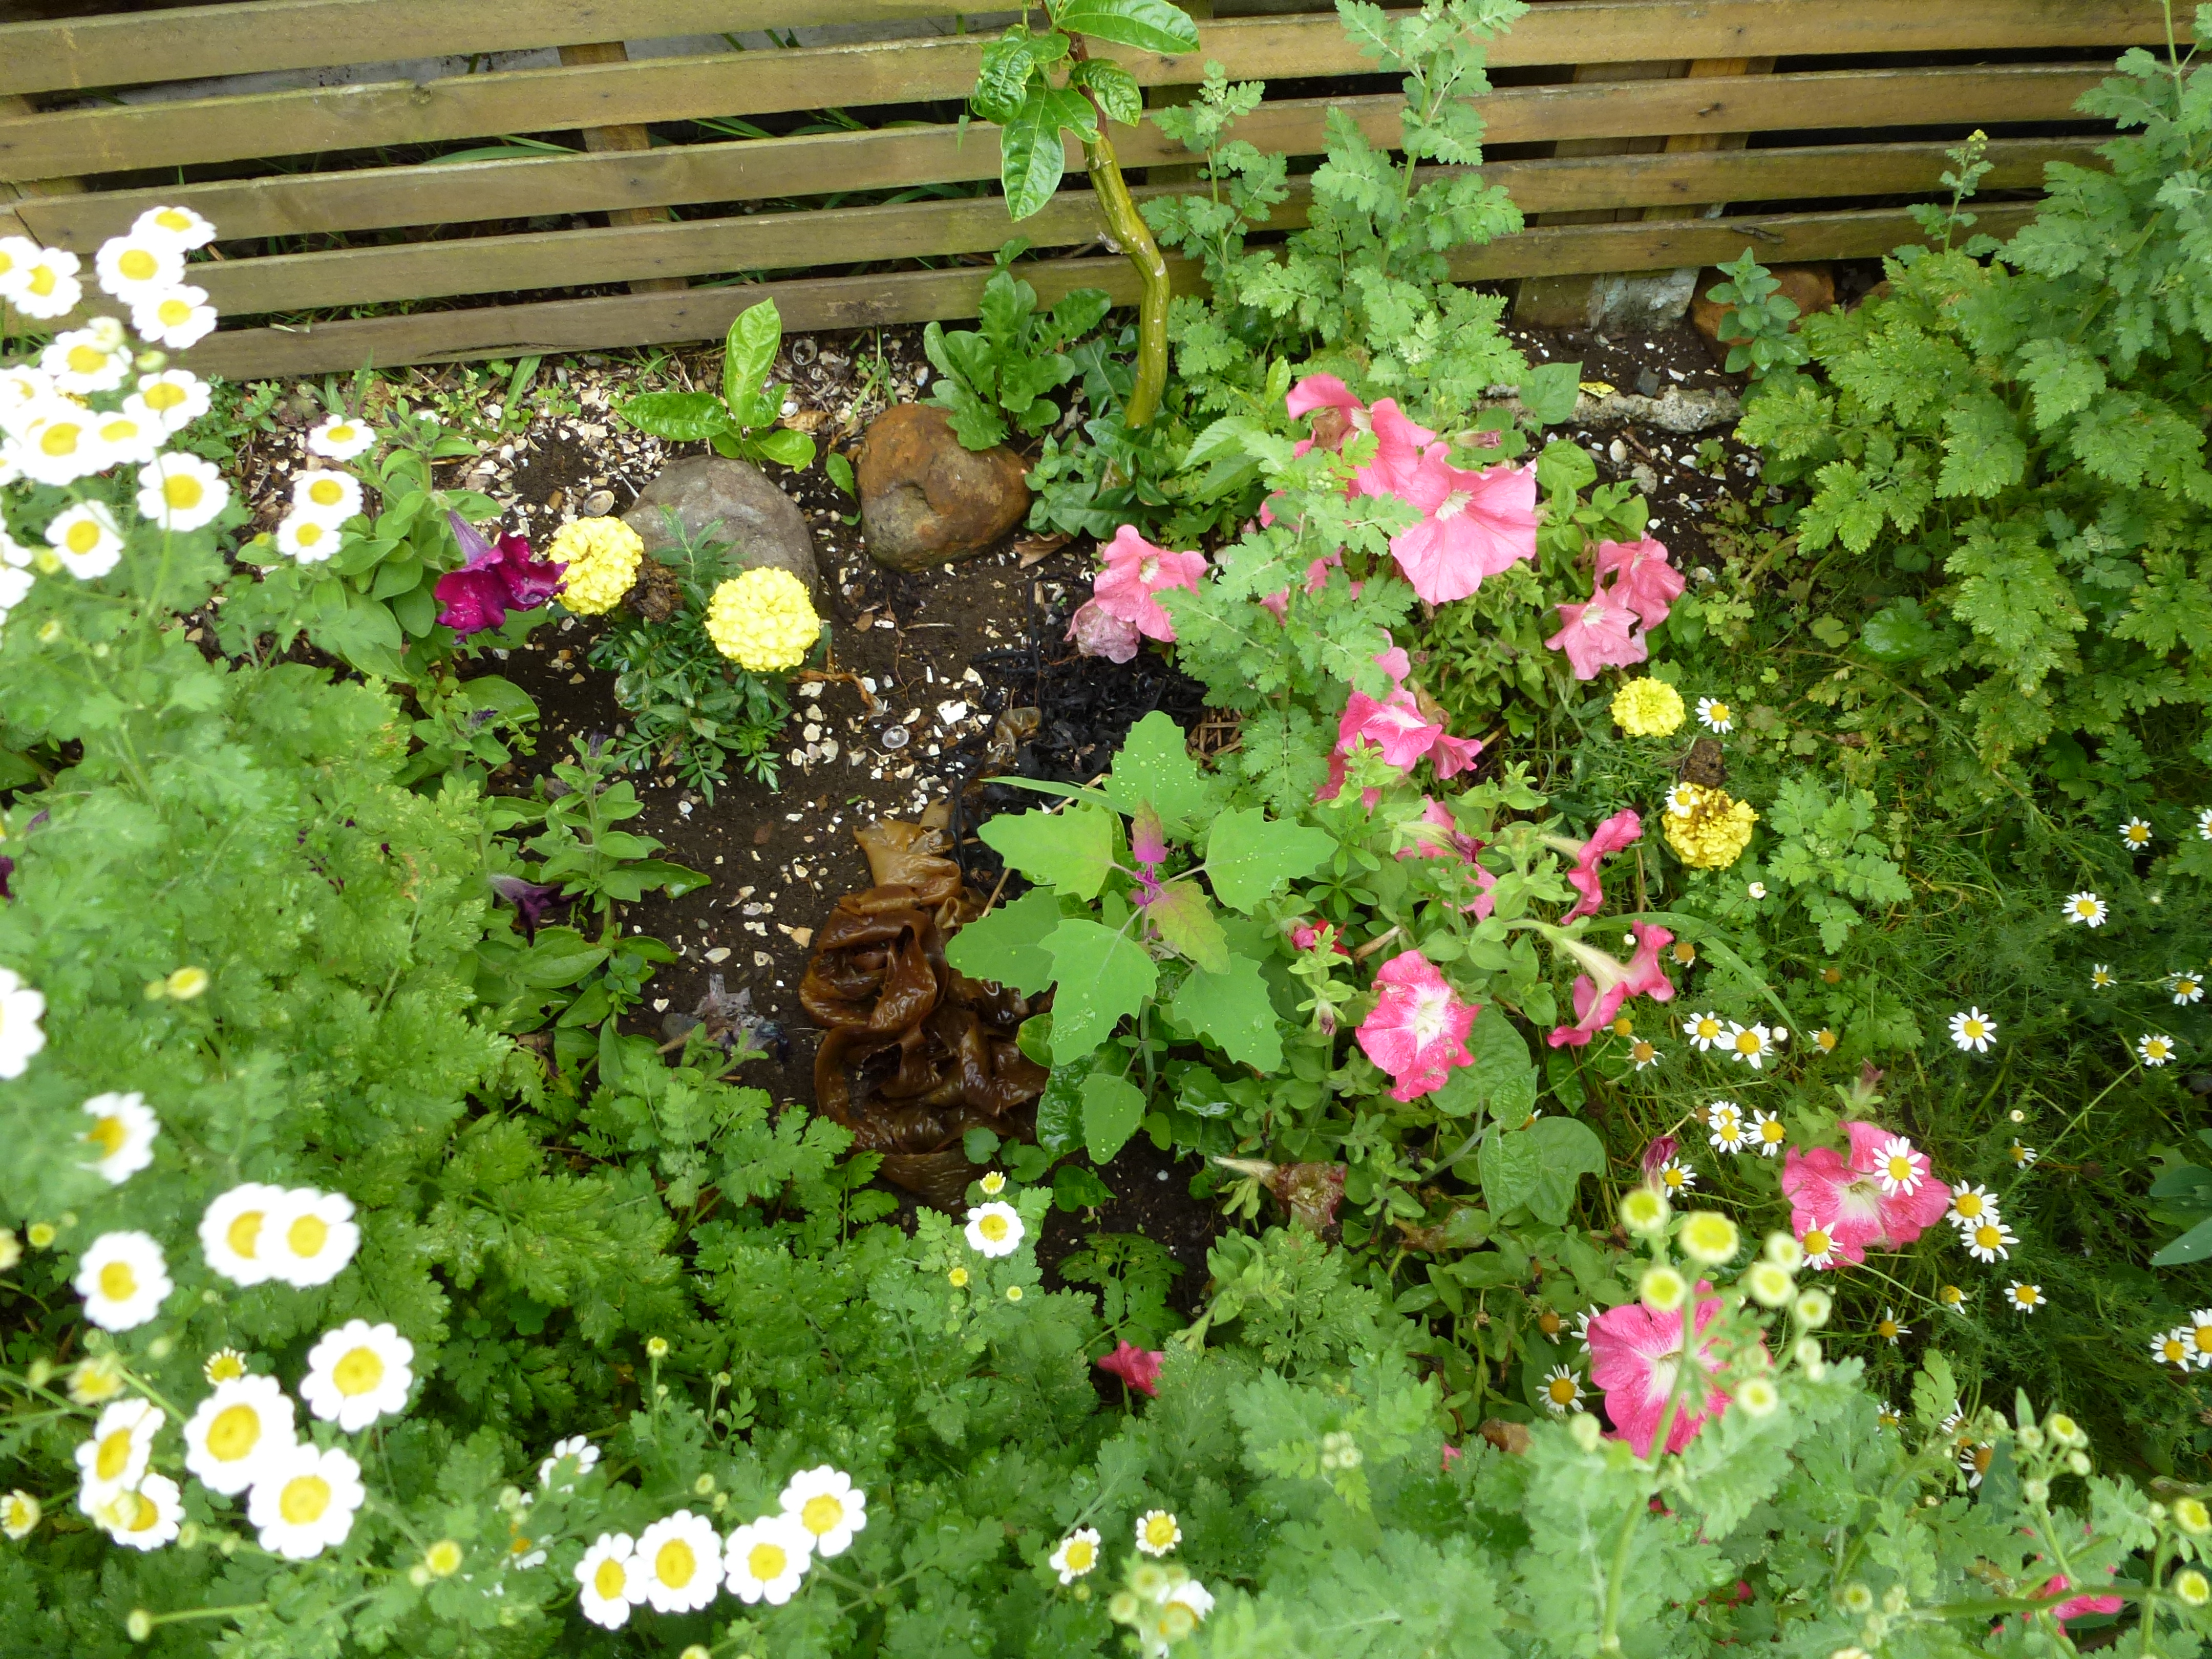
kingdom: Plantae
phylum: Tracheophyta
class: Magnoliopsida
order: Caryophyllales
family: Amaranthaceae
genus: Chenopodium
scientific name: Chenopodium quinoa
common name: Quinoa
